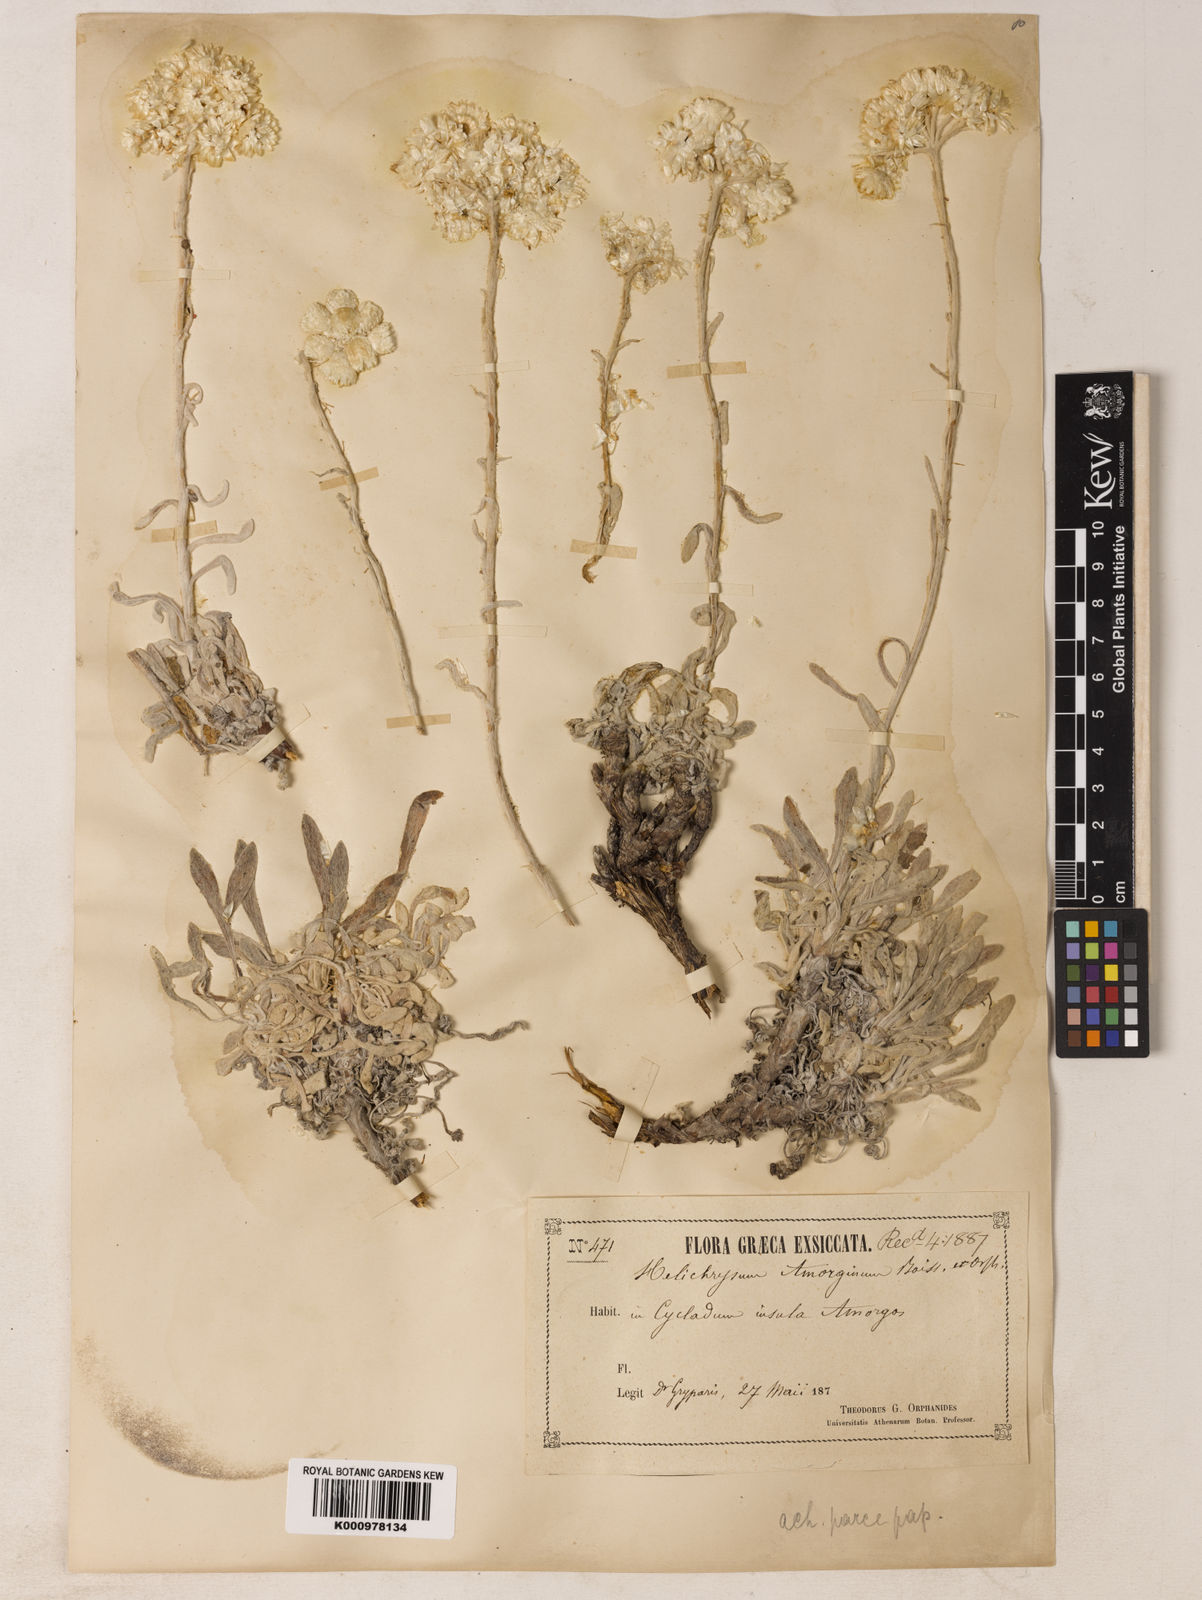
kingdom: Plantae
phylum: Tracheophyta
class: Magnoliopsida
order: Asterales
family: Asteraceae
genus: Helichrysum
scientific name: Helichrysum amorginum
